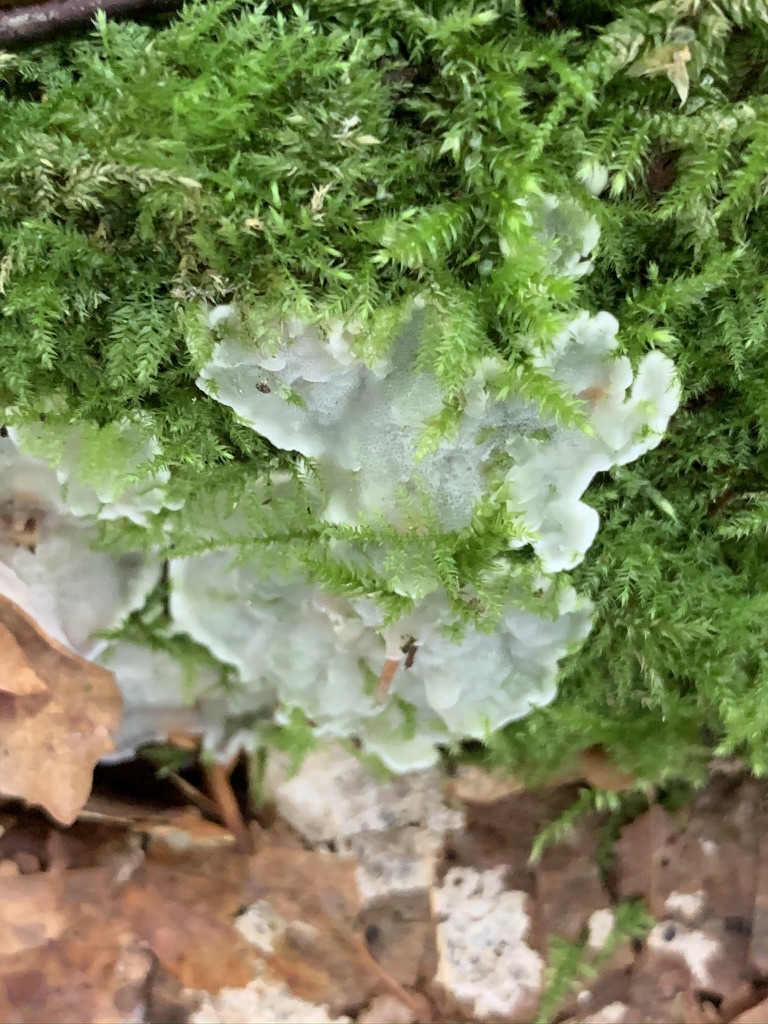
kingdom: Fungi
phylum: Basidiomycota
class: Agaricomycetes
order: Polyporales
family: Meruliaceae
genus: Physisporinus
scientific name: Physisporinus vitreus
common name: mastesvamp
